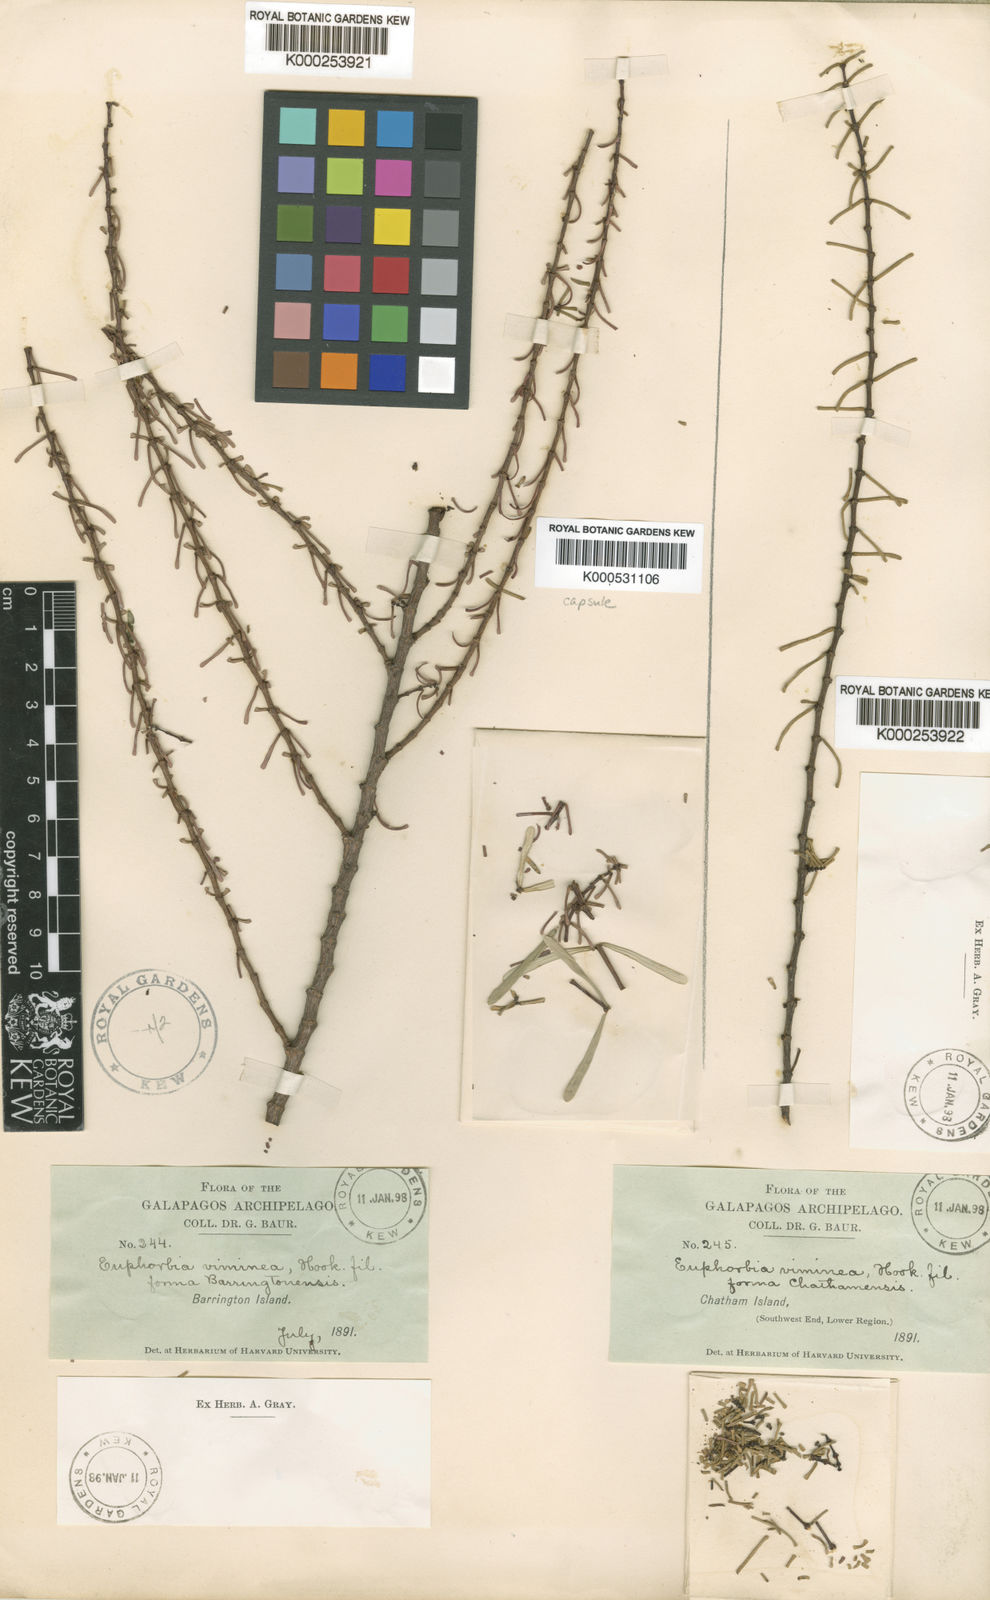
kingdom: Plantae
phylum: Tracheophyta
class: Magnoliopsida
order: Malpighiales
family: Euphorbiaceae
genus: Euphorbia
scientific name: Euphorbia viminea
